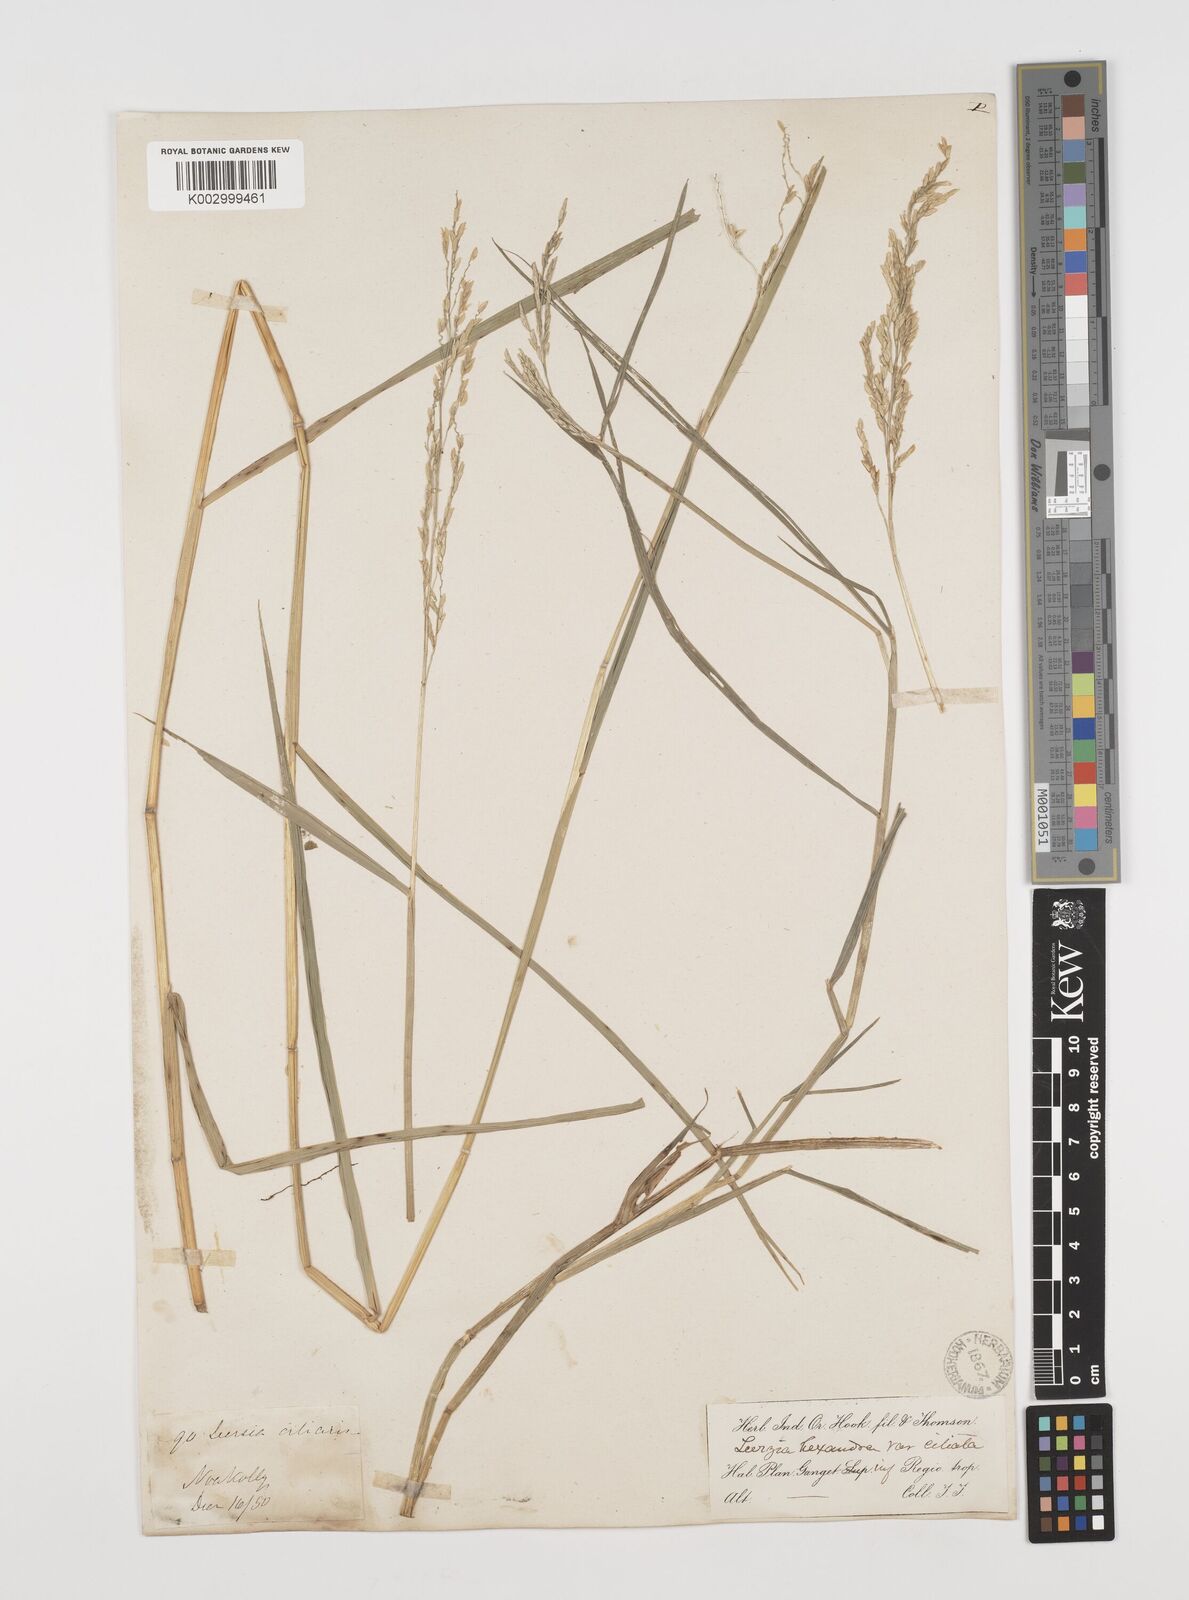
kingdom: Plantae
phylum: Tracheophyta
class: Liliopsida
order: Poales
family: Poaceae
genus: Leersia
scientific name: Leersia hexandra
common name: Southern cut grass
